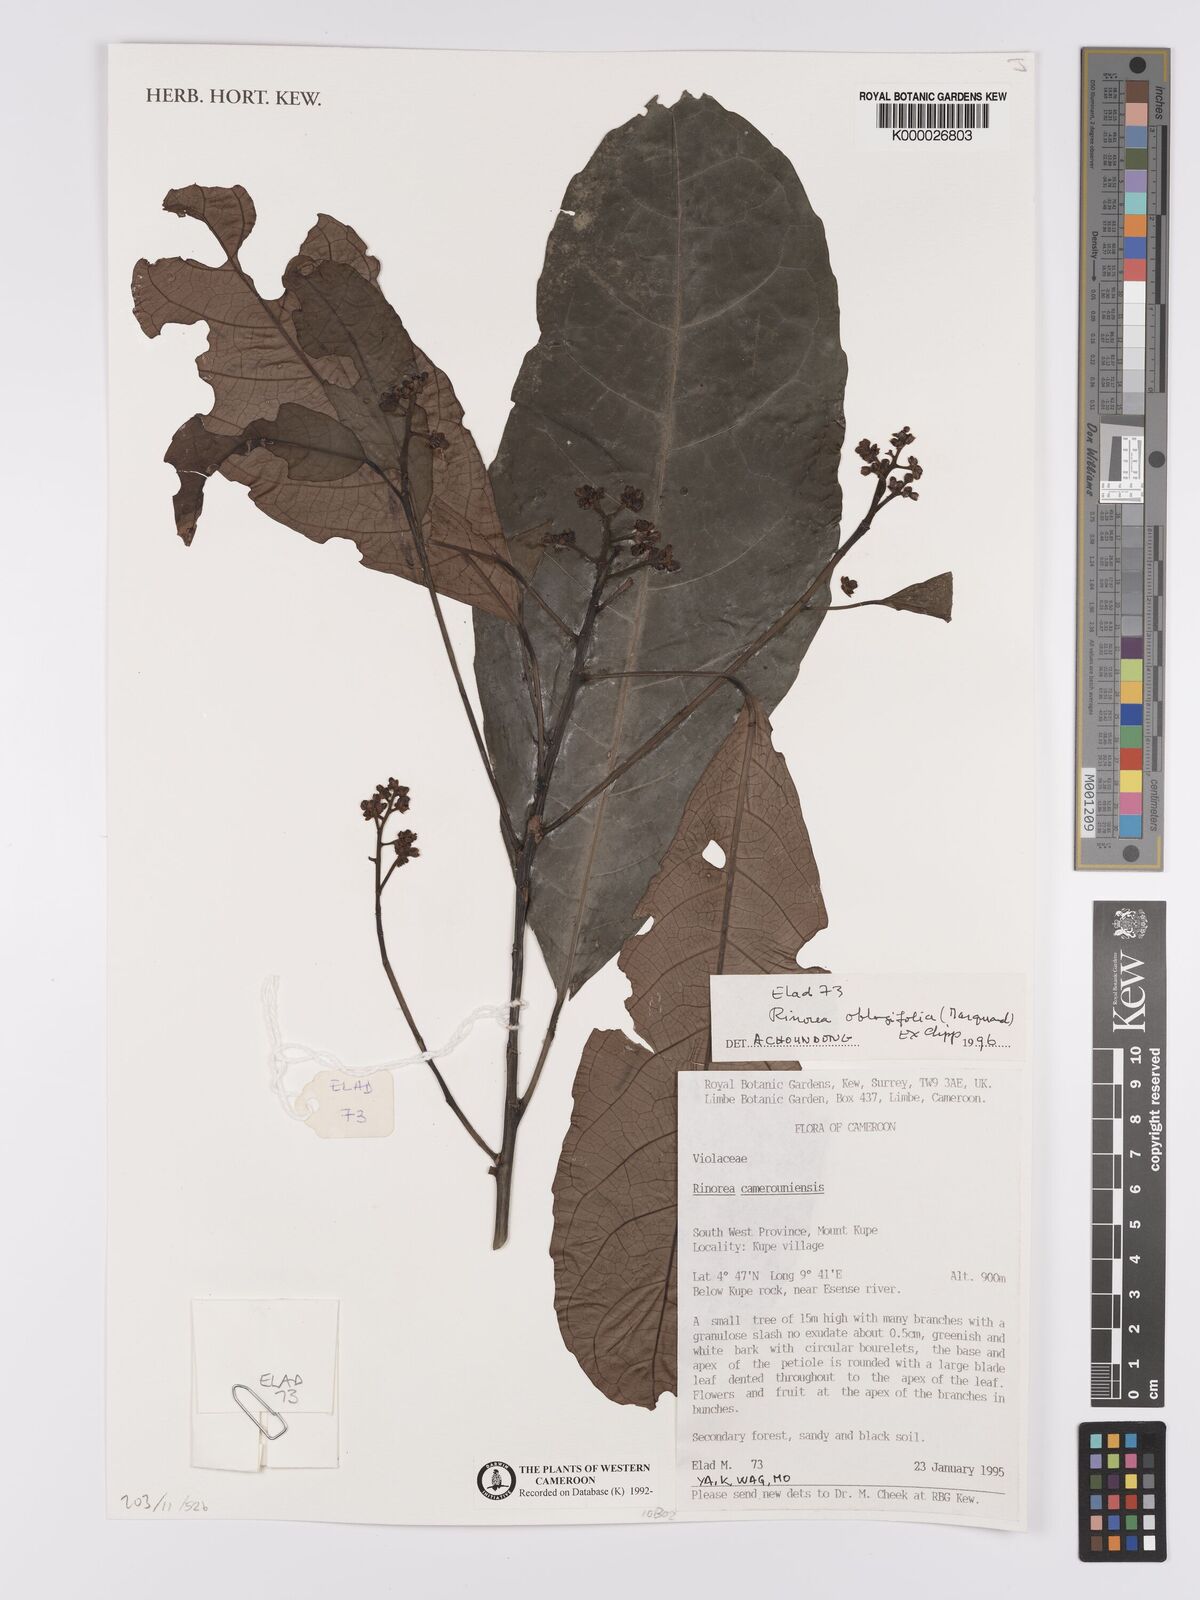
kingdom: Plantae
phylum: Tracheophyta
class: Magnoliopsida
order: Malpighiales
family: Violaceae
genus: Rinorea
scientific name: Rinorea dentata
